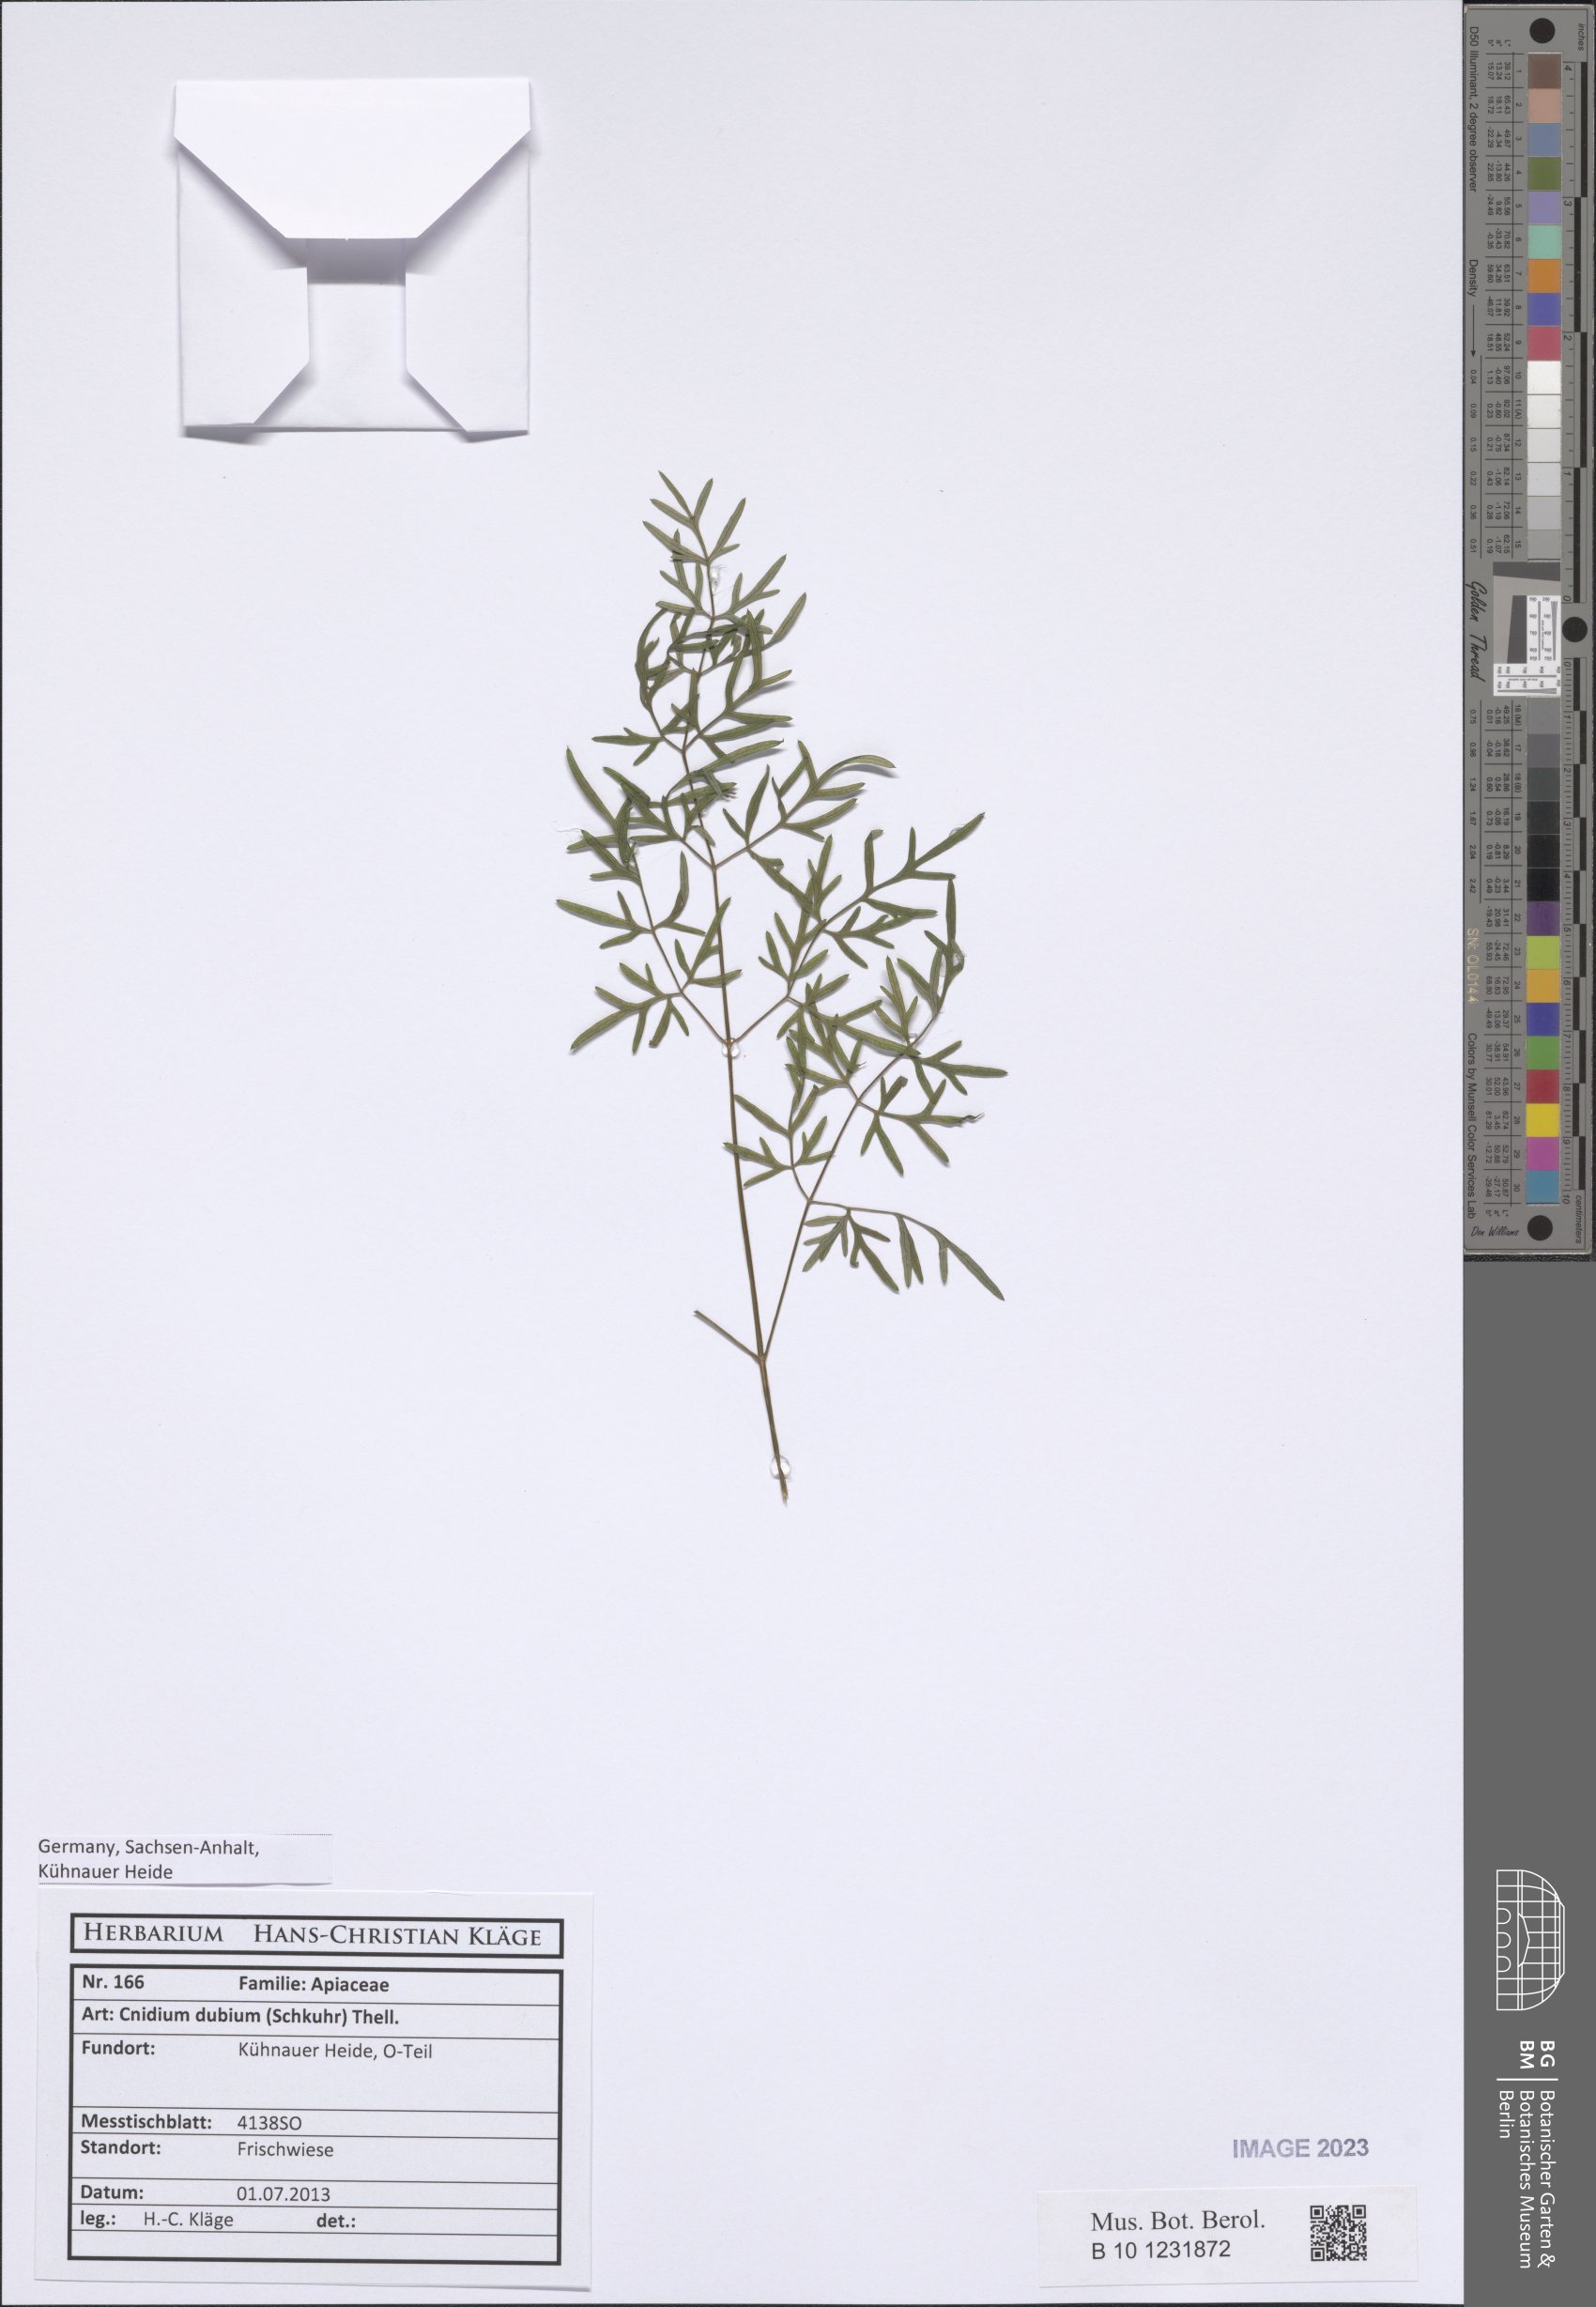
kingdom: Plantae
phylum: Tracheophyta
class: Magnoliopsida
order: Apiales
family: Apiaceae
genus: Kadenia
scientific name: Kadenia dubia
